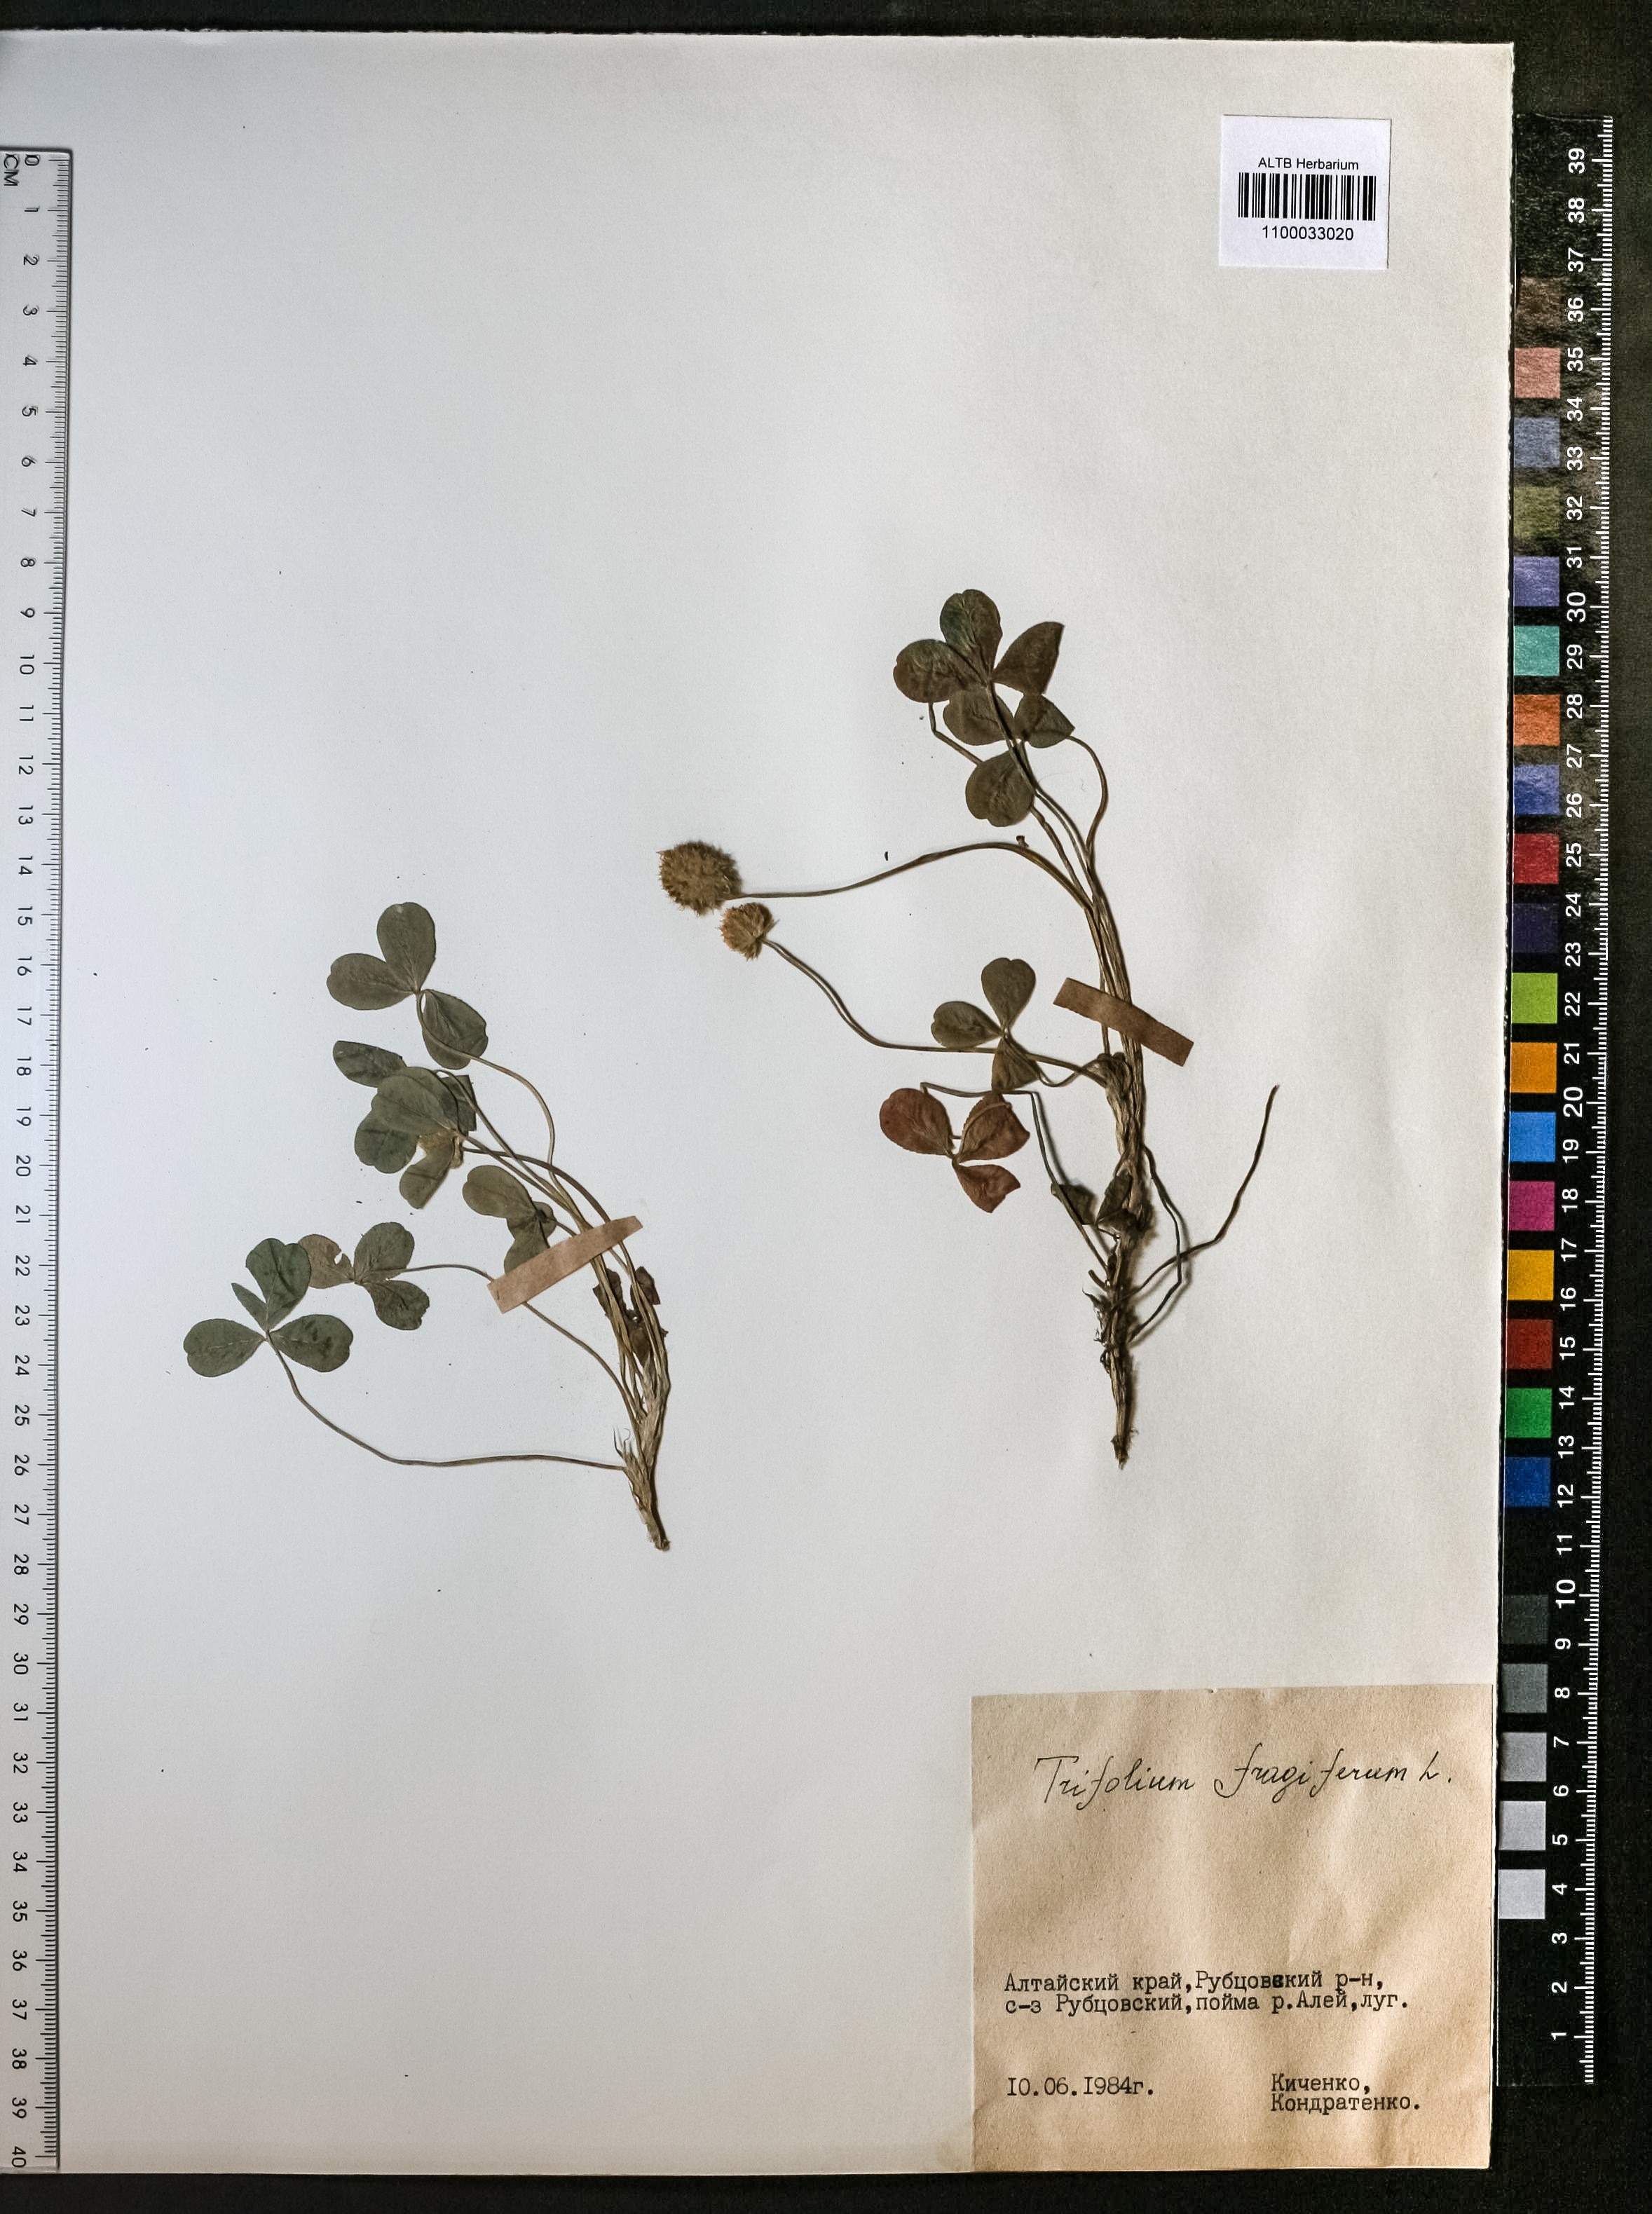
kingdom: Plantae
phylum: Tracheophyta
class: Magnoliopsida
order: Fabales
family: Fabaceae
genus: Trifolium
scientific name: Trifolium fragiferum
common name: Strawberry clover
